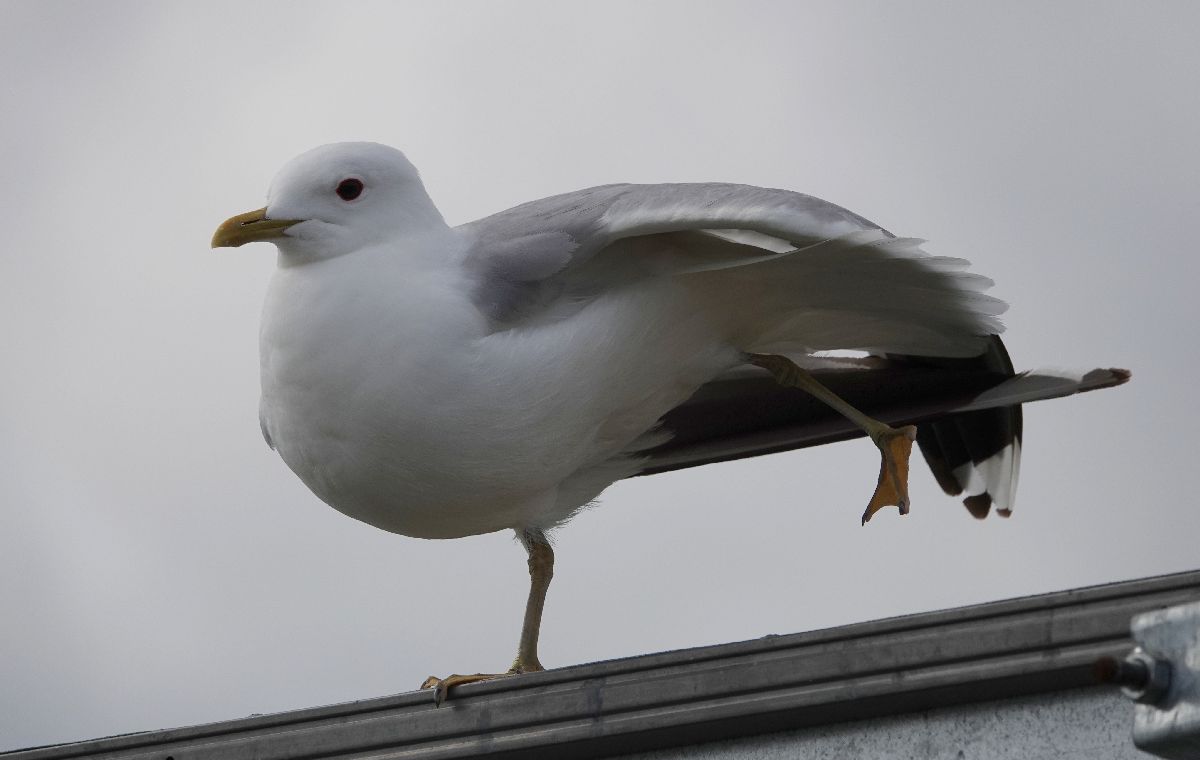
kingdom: Animalia
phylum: Chordata
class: Aves
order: Charadriiformes
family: Laridae
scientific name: Laridae
